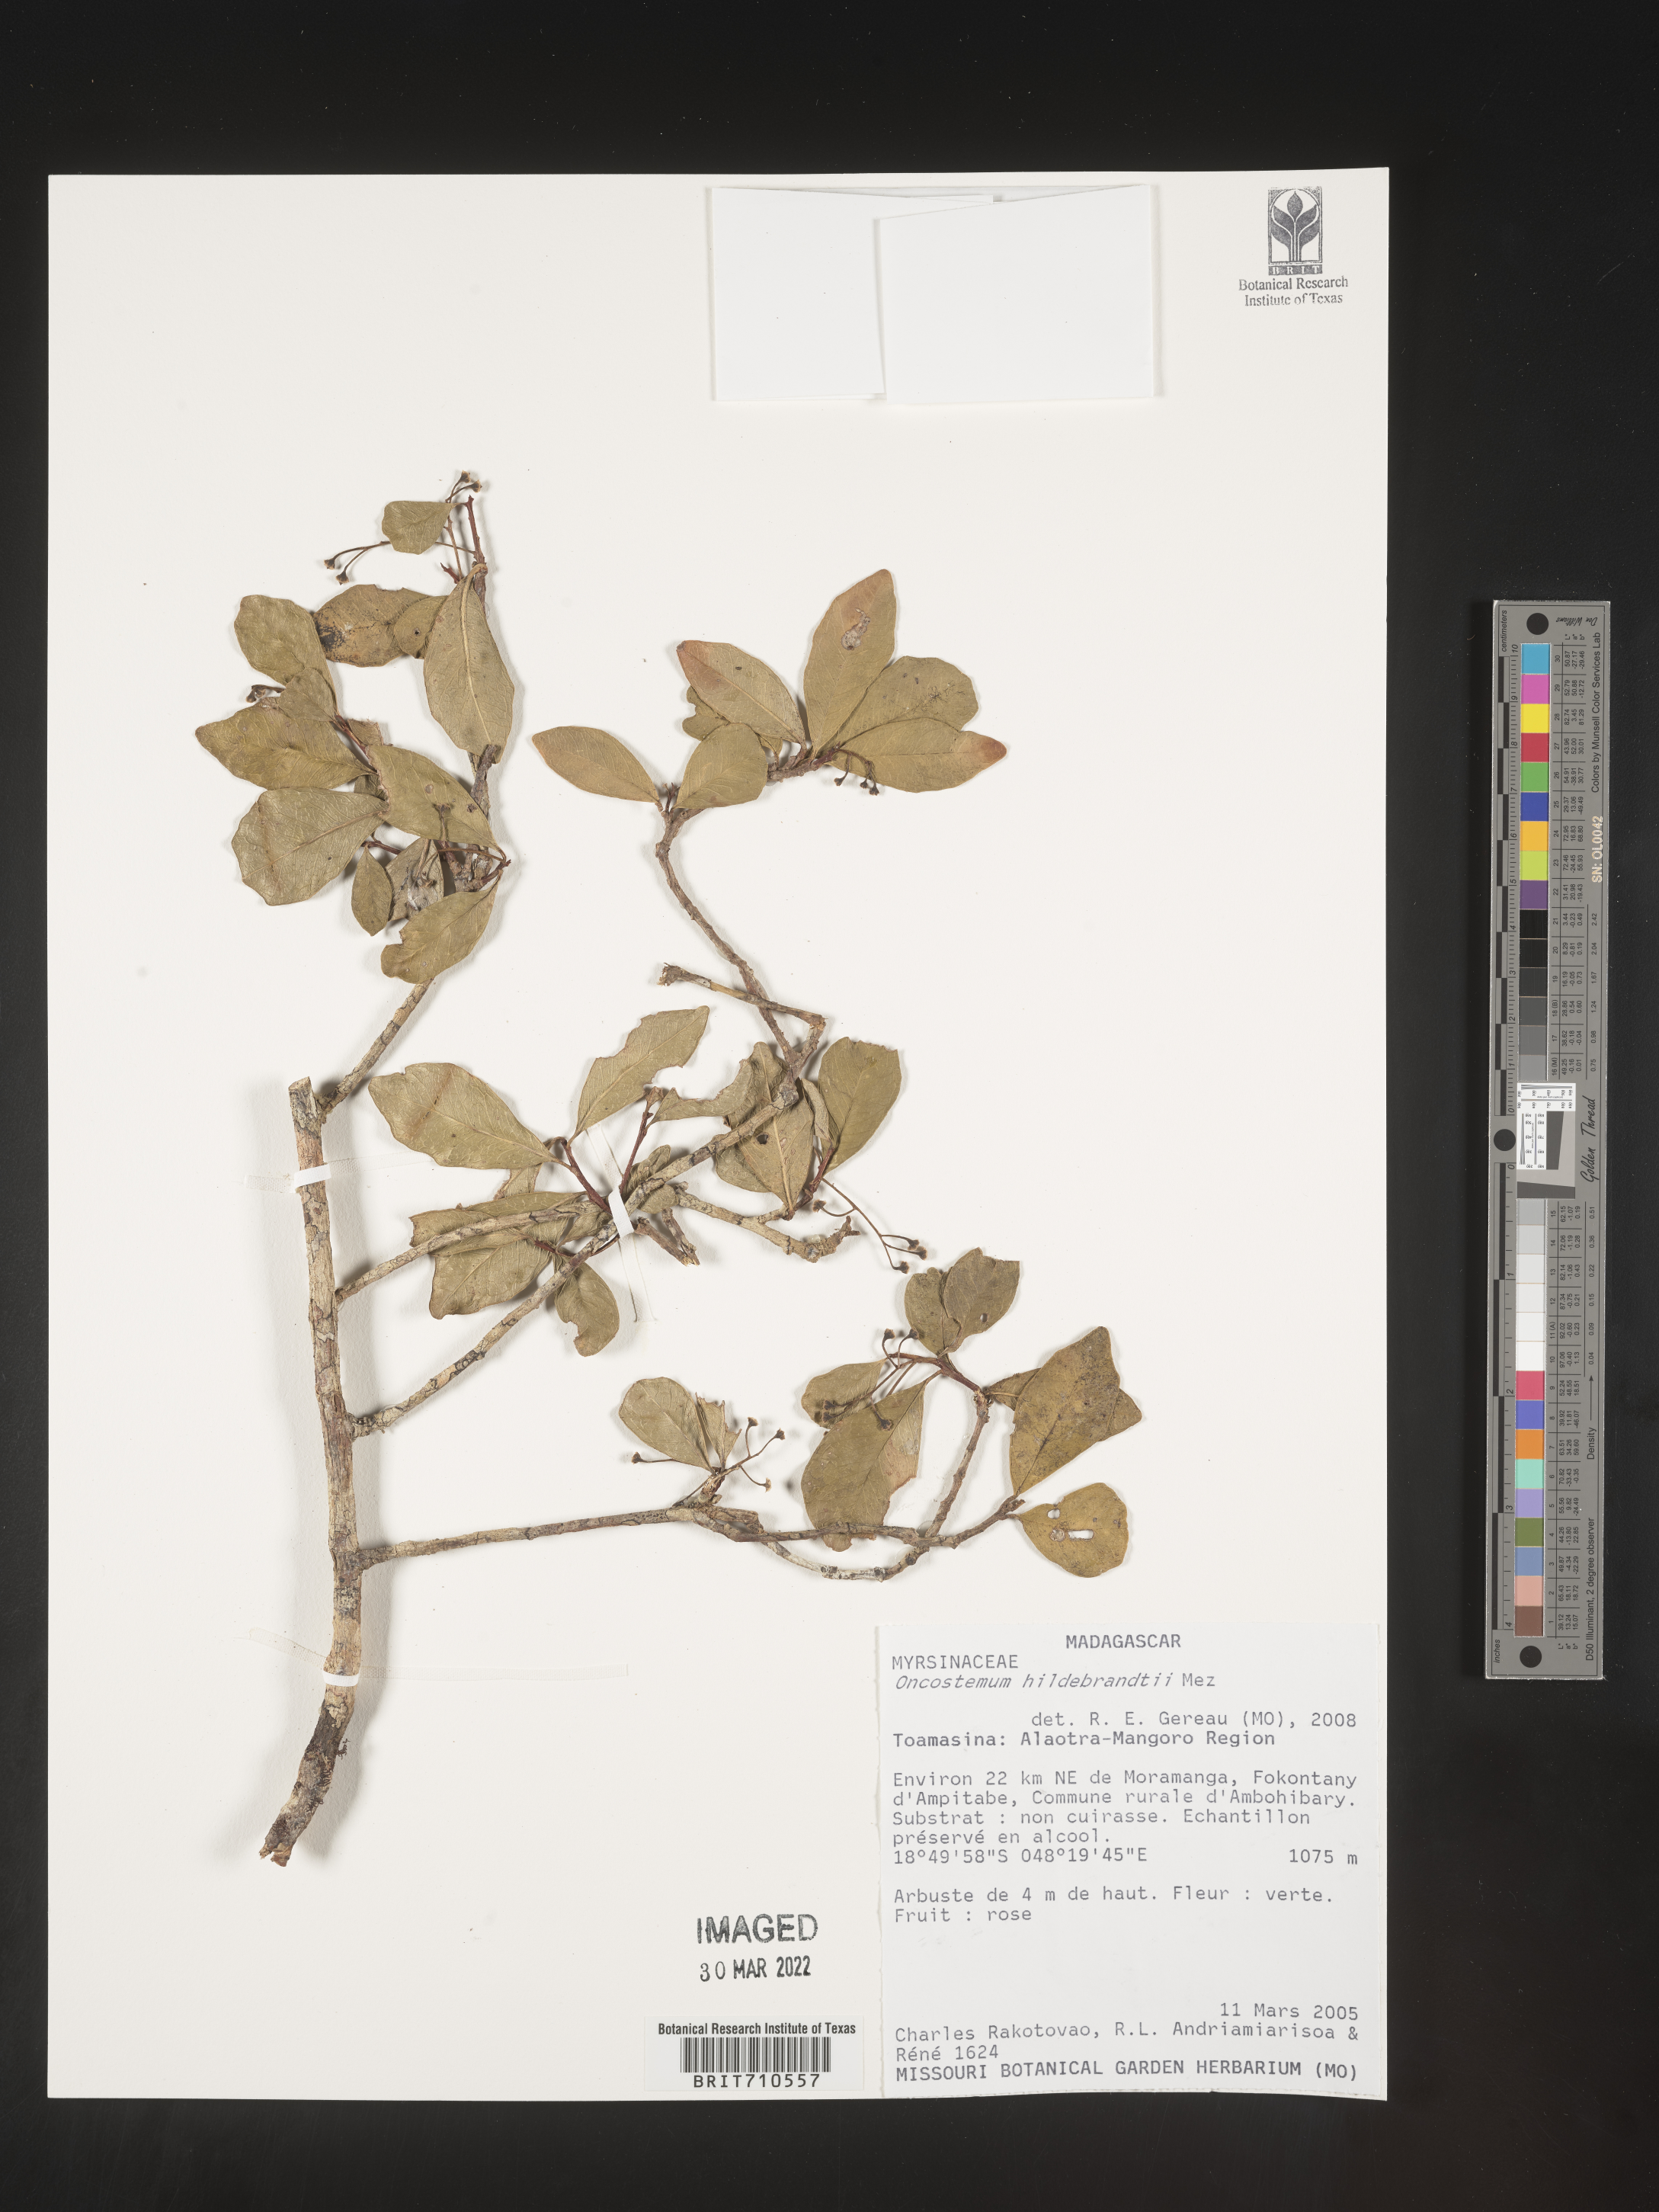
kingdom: Plantae
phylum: Tracheophyta
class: Magnoliopsida
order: Ericales
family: Primulaceae
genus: Oncostemum
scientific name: Oncostemum
